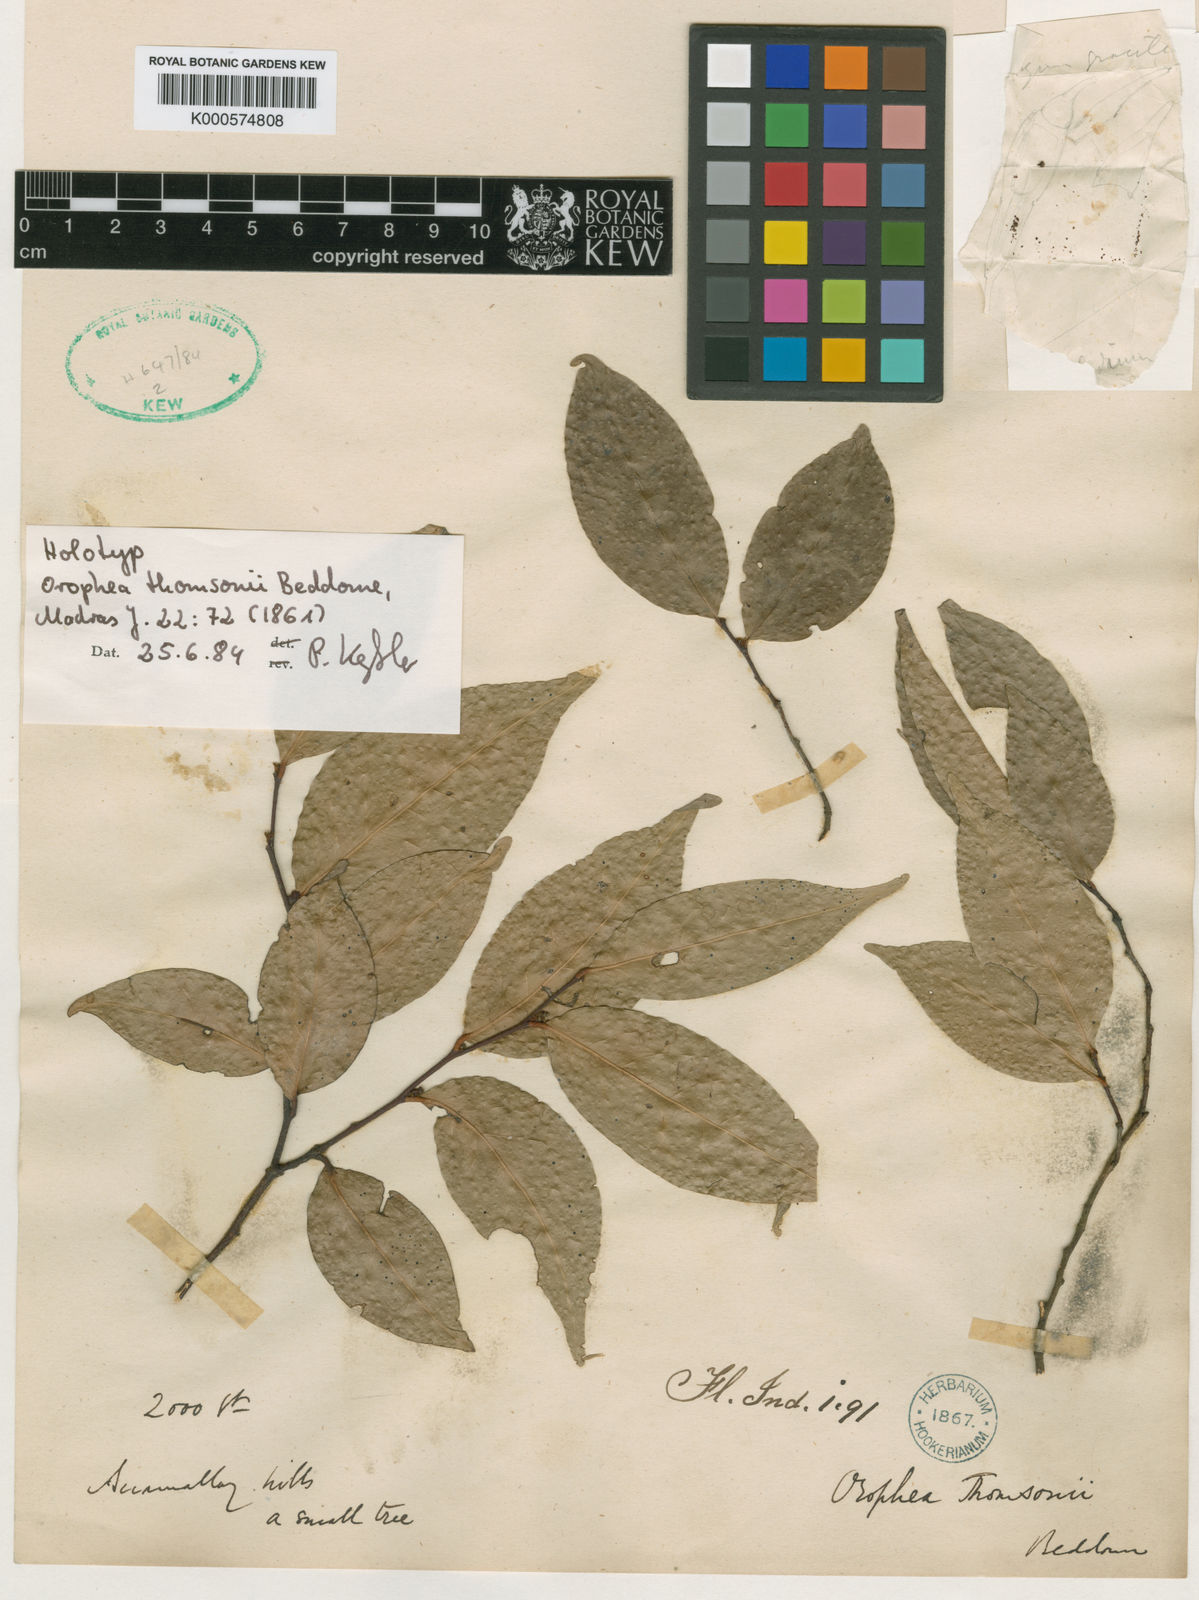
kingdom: Plantae
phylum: Tracheophyta
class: Magnoliopsida
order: Magnoliales
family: Annonaceae
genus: Orophea
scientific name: Orophea thomsonii
